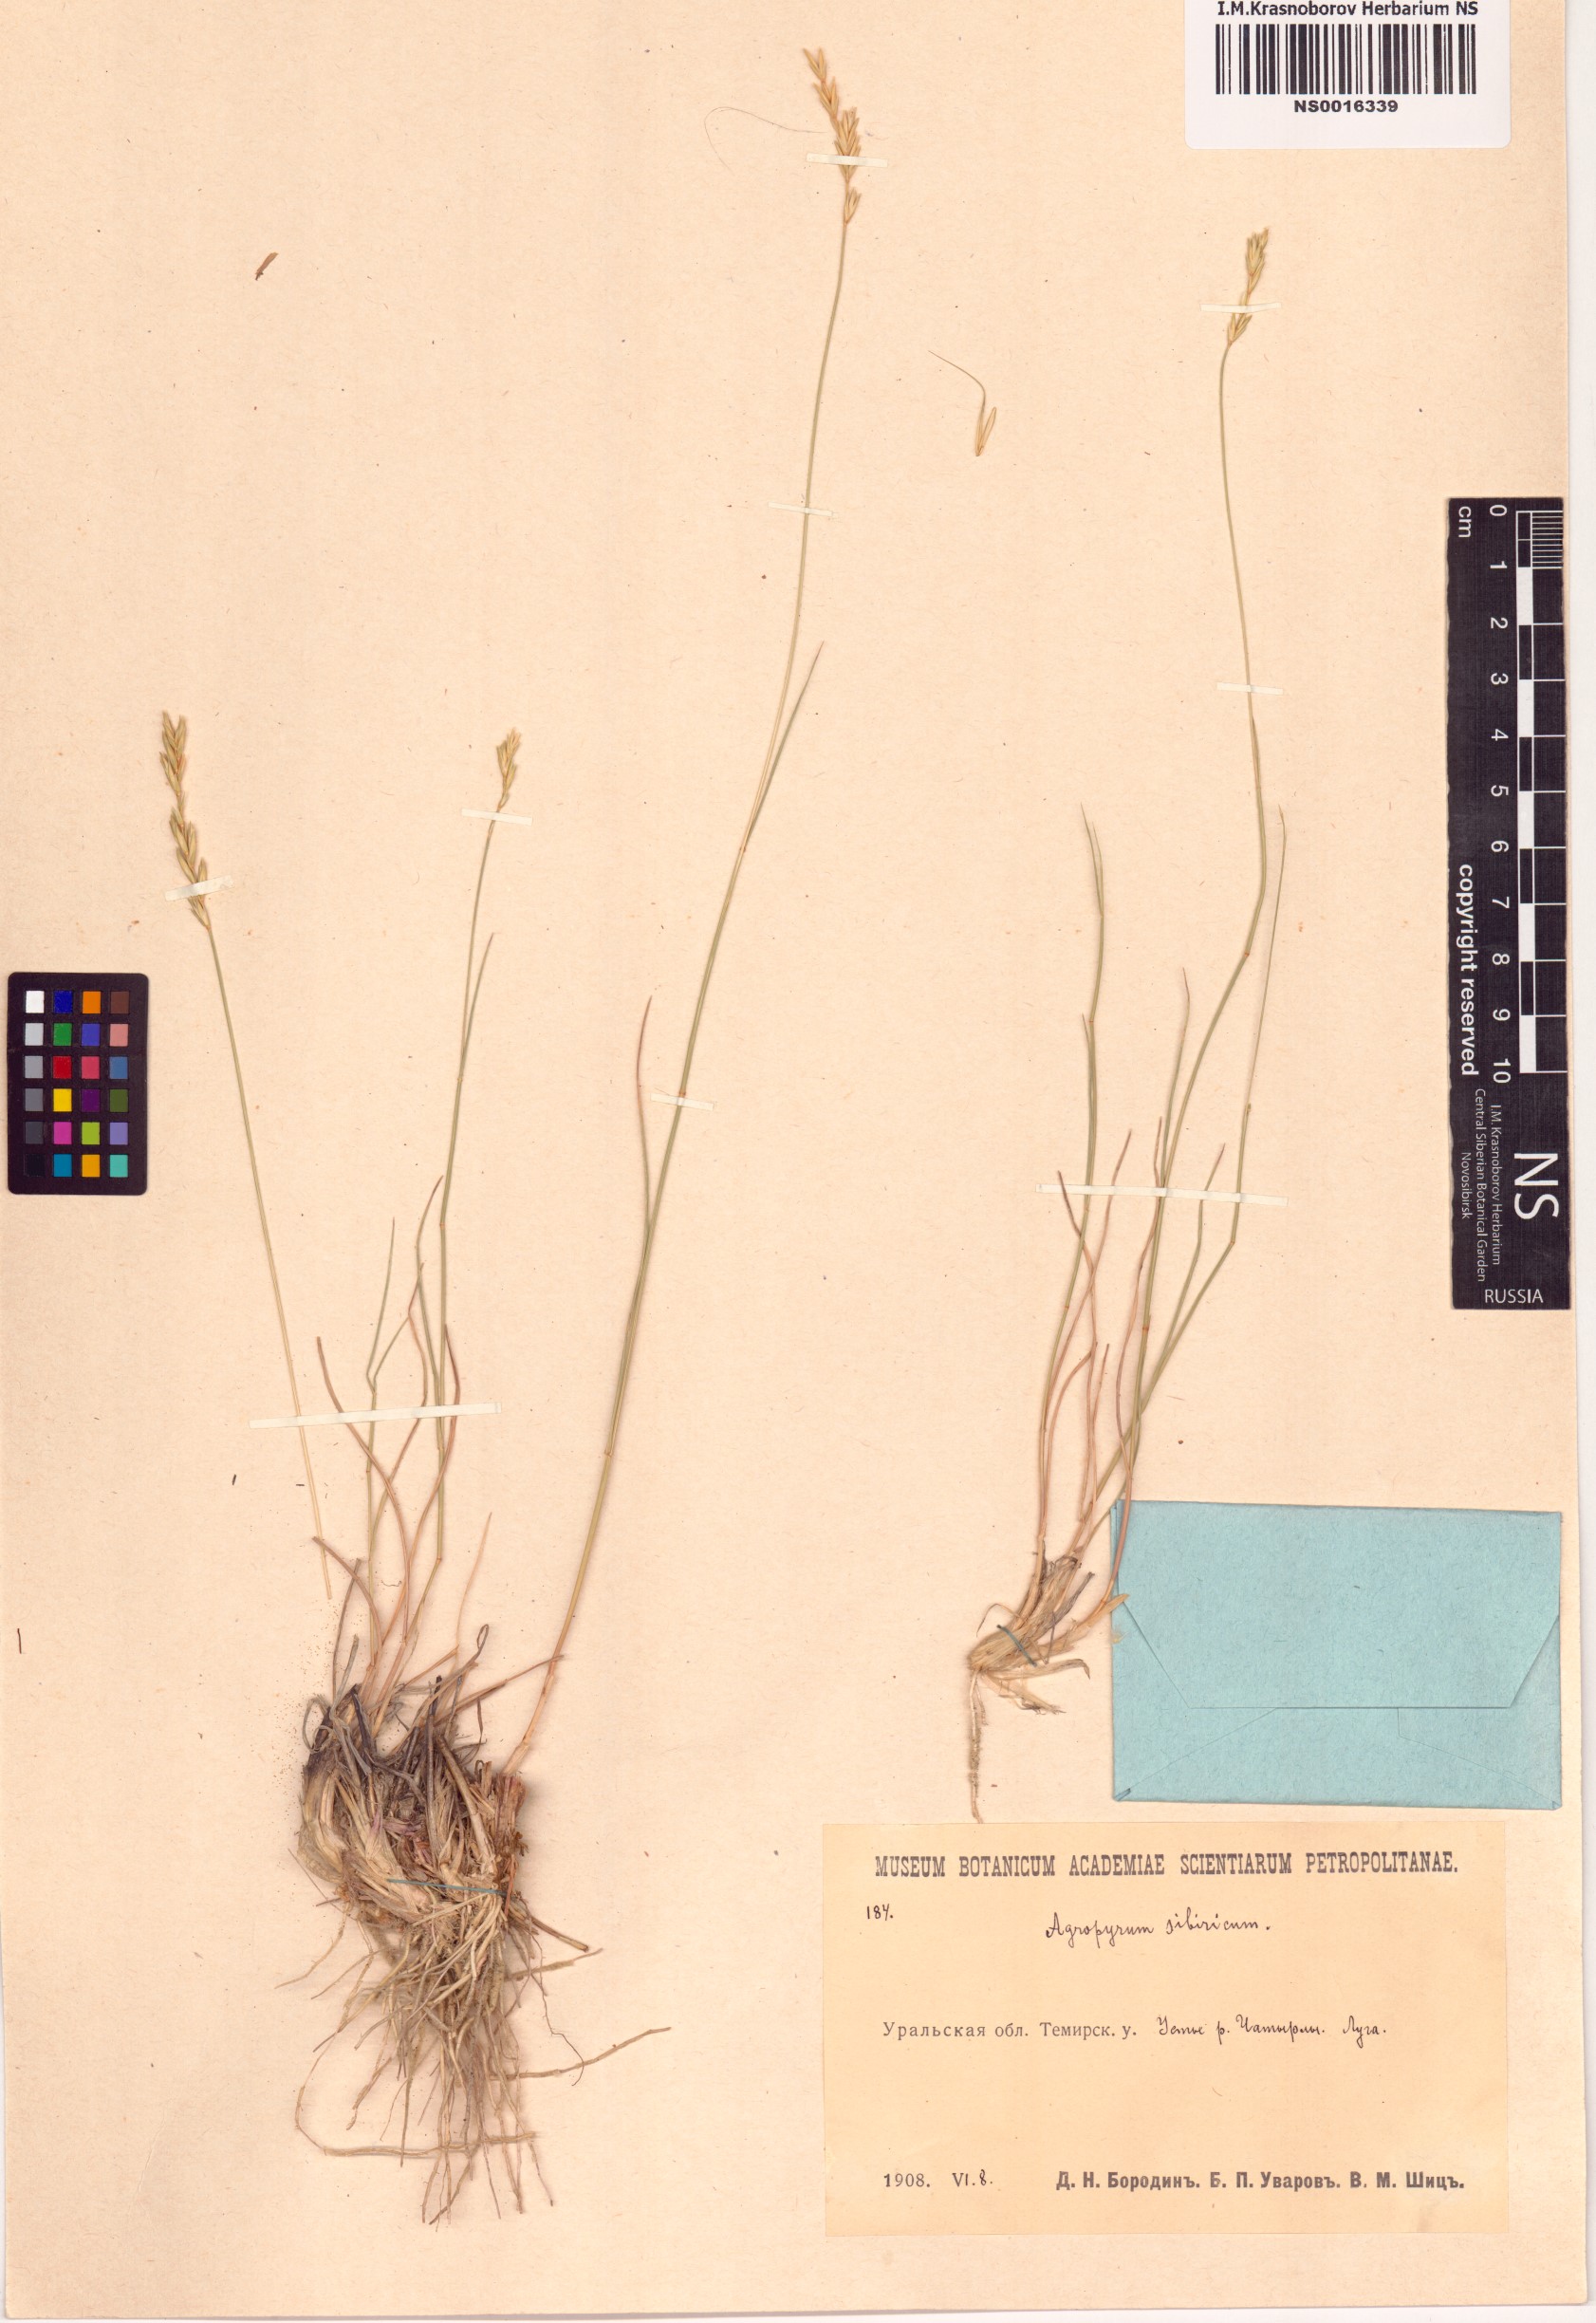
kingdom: Plantae
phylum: Tracheophyta
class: Liliopsida
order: Poales
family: Poaceae
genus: Agropyron
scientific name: Agropyron fragile
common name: Siberian wheatgrass
